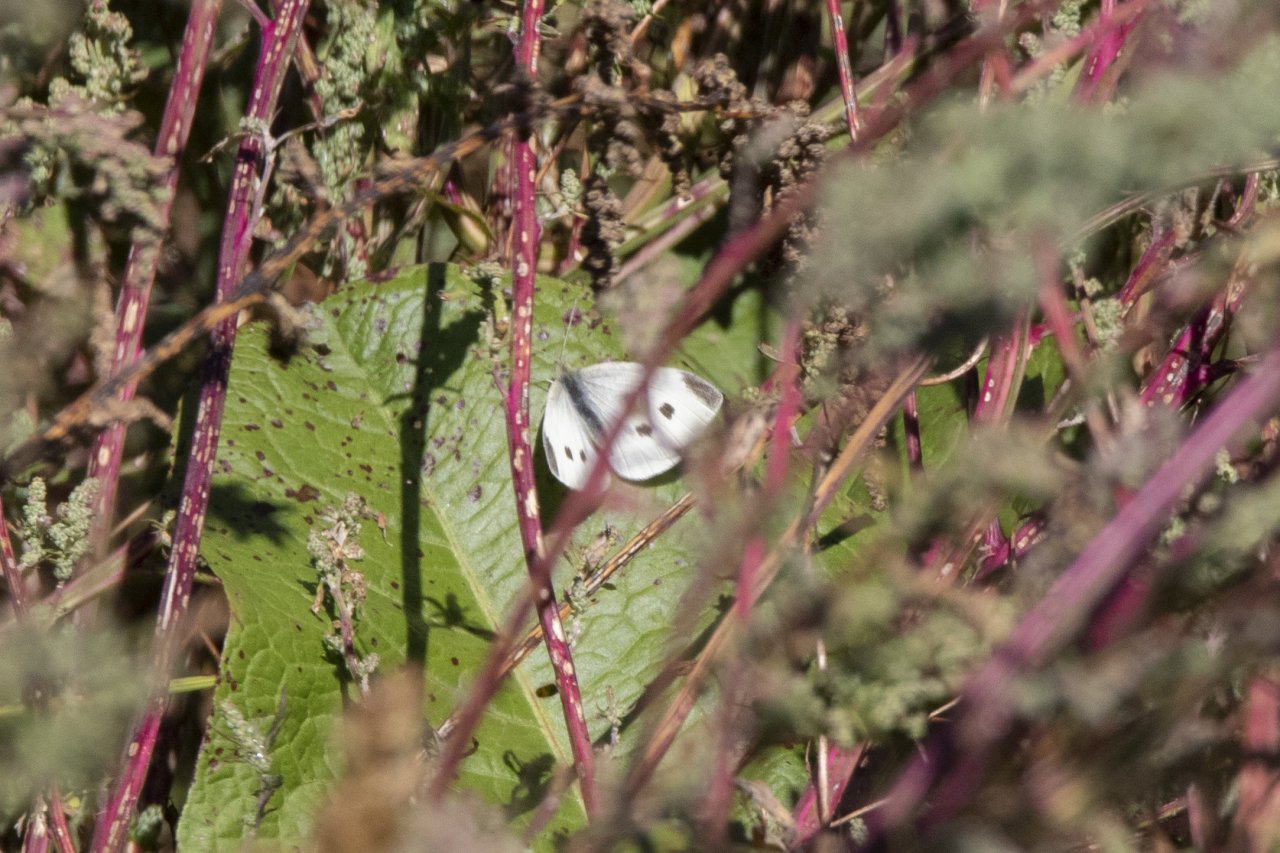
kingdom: Animalia
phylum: Arthropoda
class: Insecta
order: Lepidoptera
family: Pieridae
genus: Pieris
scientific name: Pieris rapae
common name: Cabbage White
